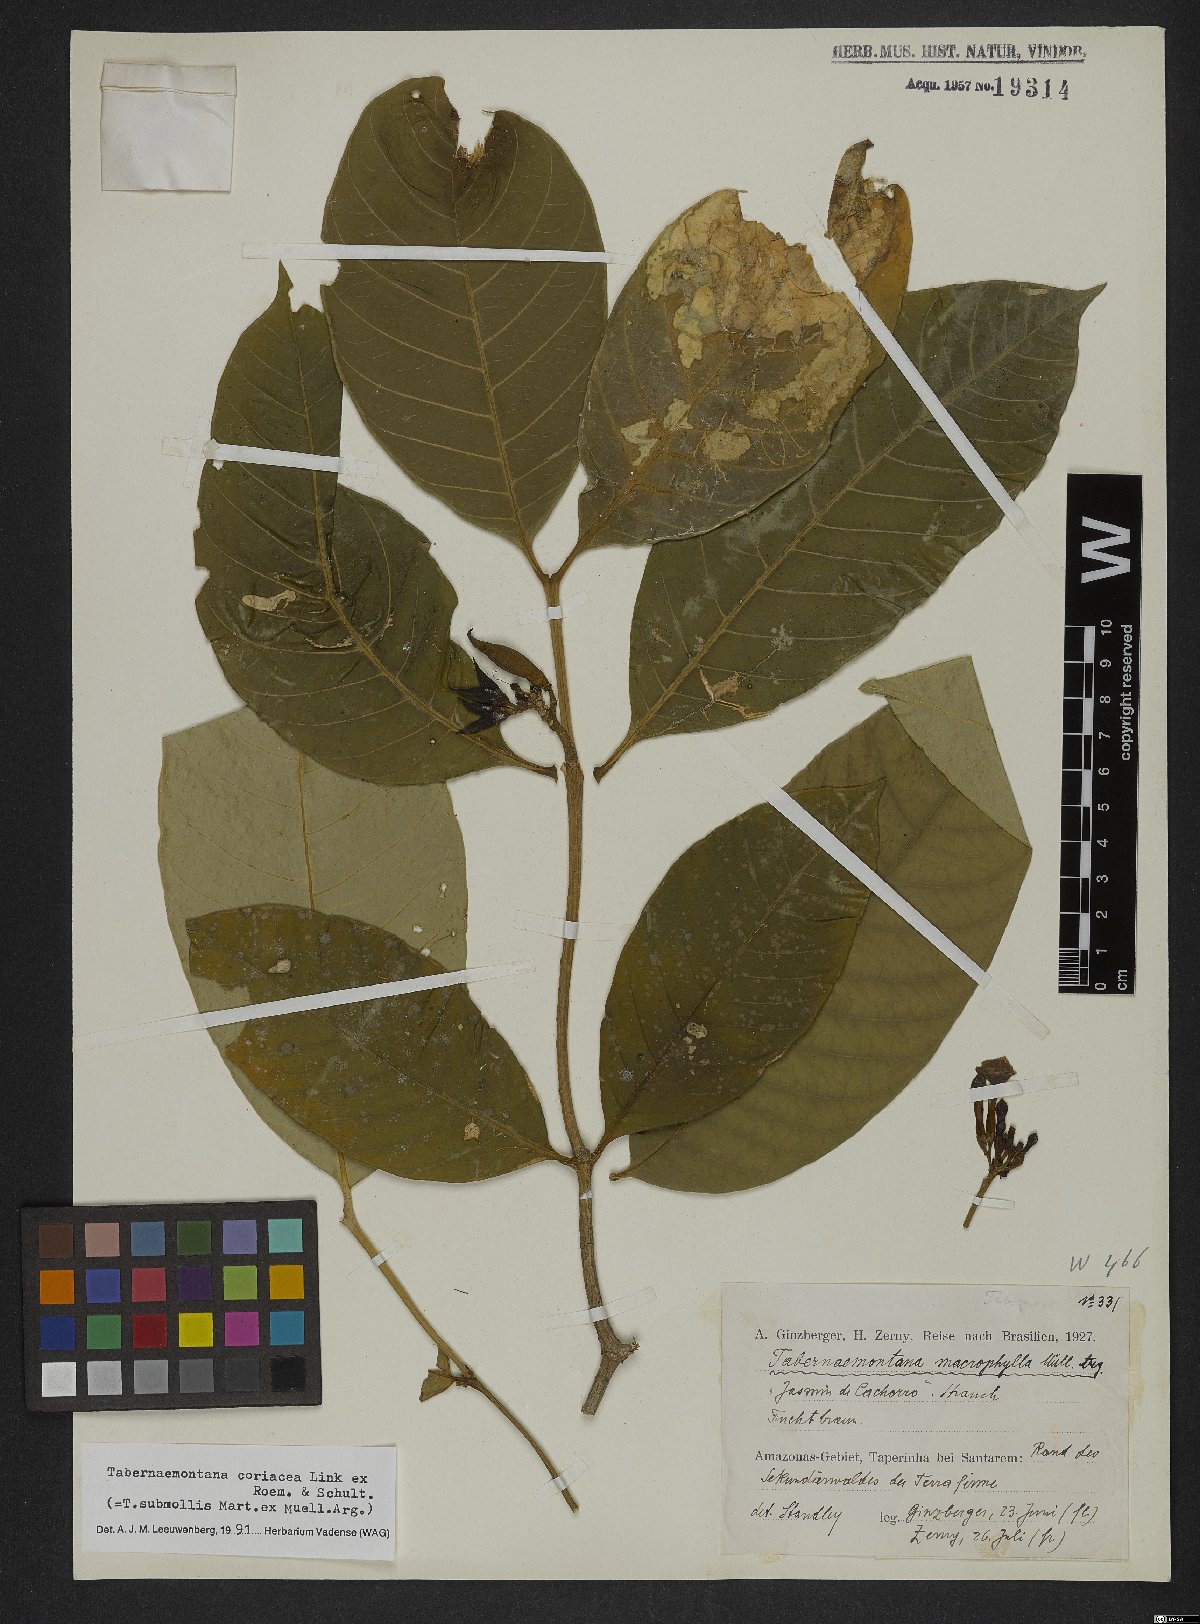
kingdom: Plantae
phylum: Tracheophyta
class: Magnoliopsida
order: Gentianales
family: Apocynaceae
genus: Tabernaemontana
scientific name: Tabernaemontana coriacea
